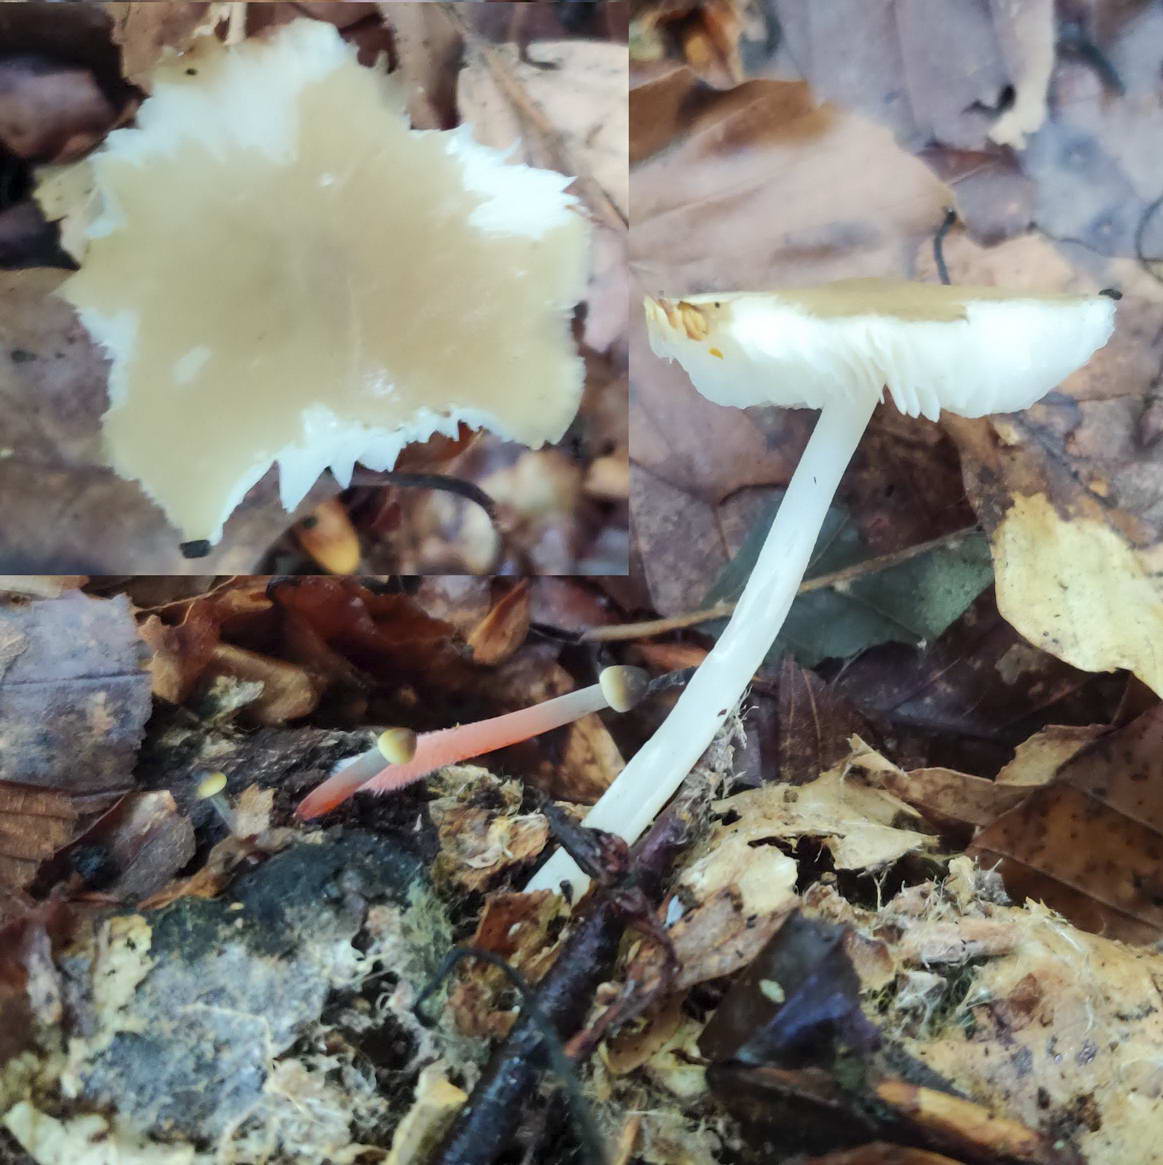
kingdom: Fungi
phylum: Basidiomycota
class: Agaricomycetes
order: Agaricales
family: Porotheleaceae
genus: Hydropodia
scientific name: Hydropodia subalpina
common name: vår-fnugfod
